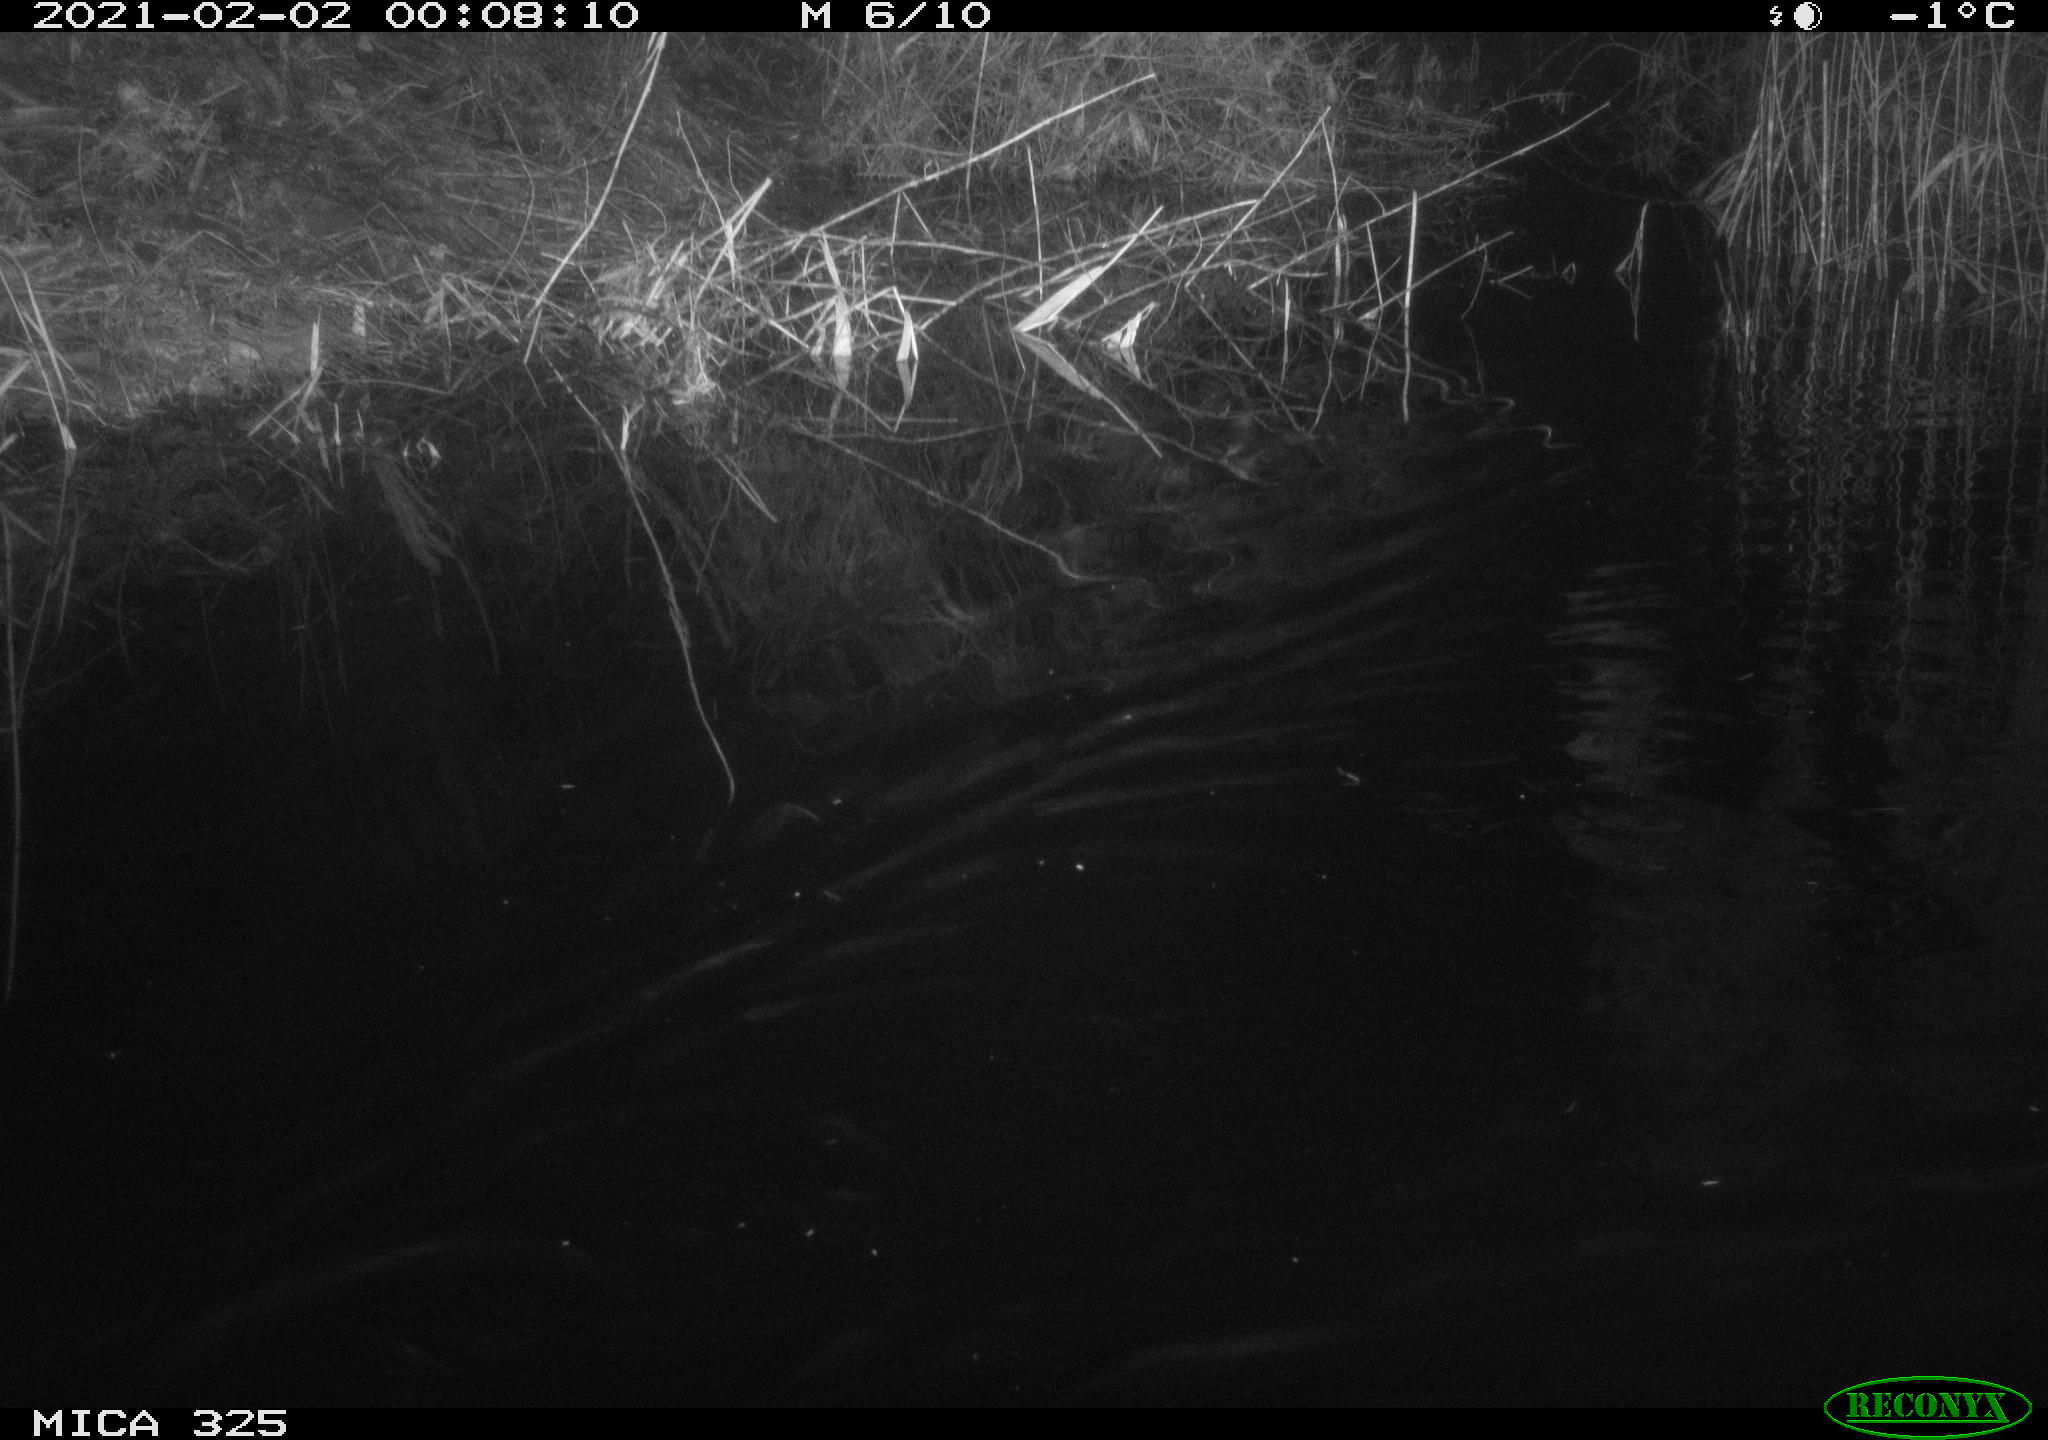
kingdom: Animalia
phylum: Chordata
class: Mammalia
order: Rodentia
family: Cricetidae
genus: Ondatra
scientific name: Ondatra zibethicus
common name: Muskrat
